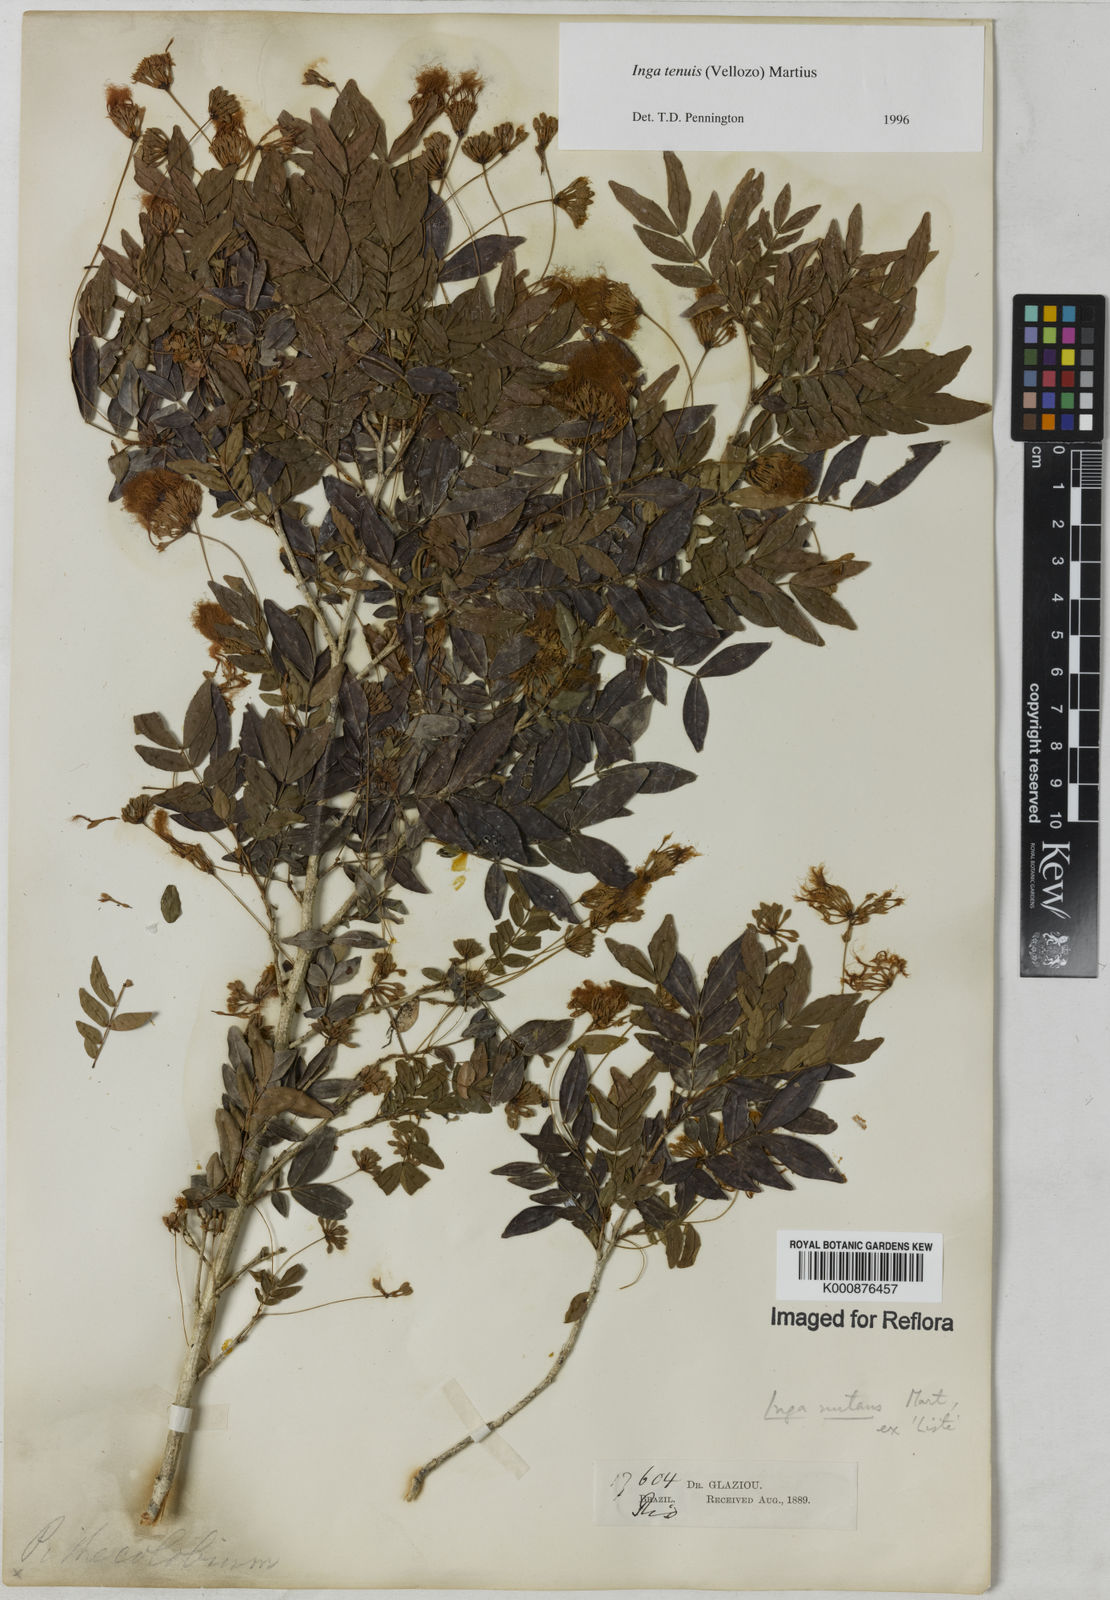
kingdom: Plantae
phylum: Tracheophyta
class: Magnoliopsida
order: Fabales
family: Fabaceae
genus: Inga
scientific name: Inga tenuis
